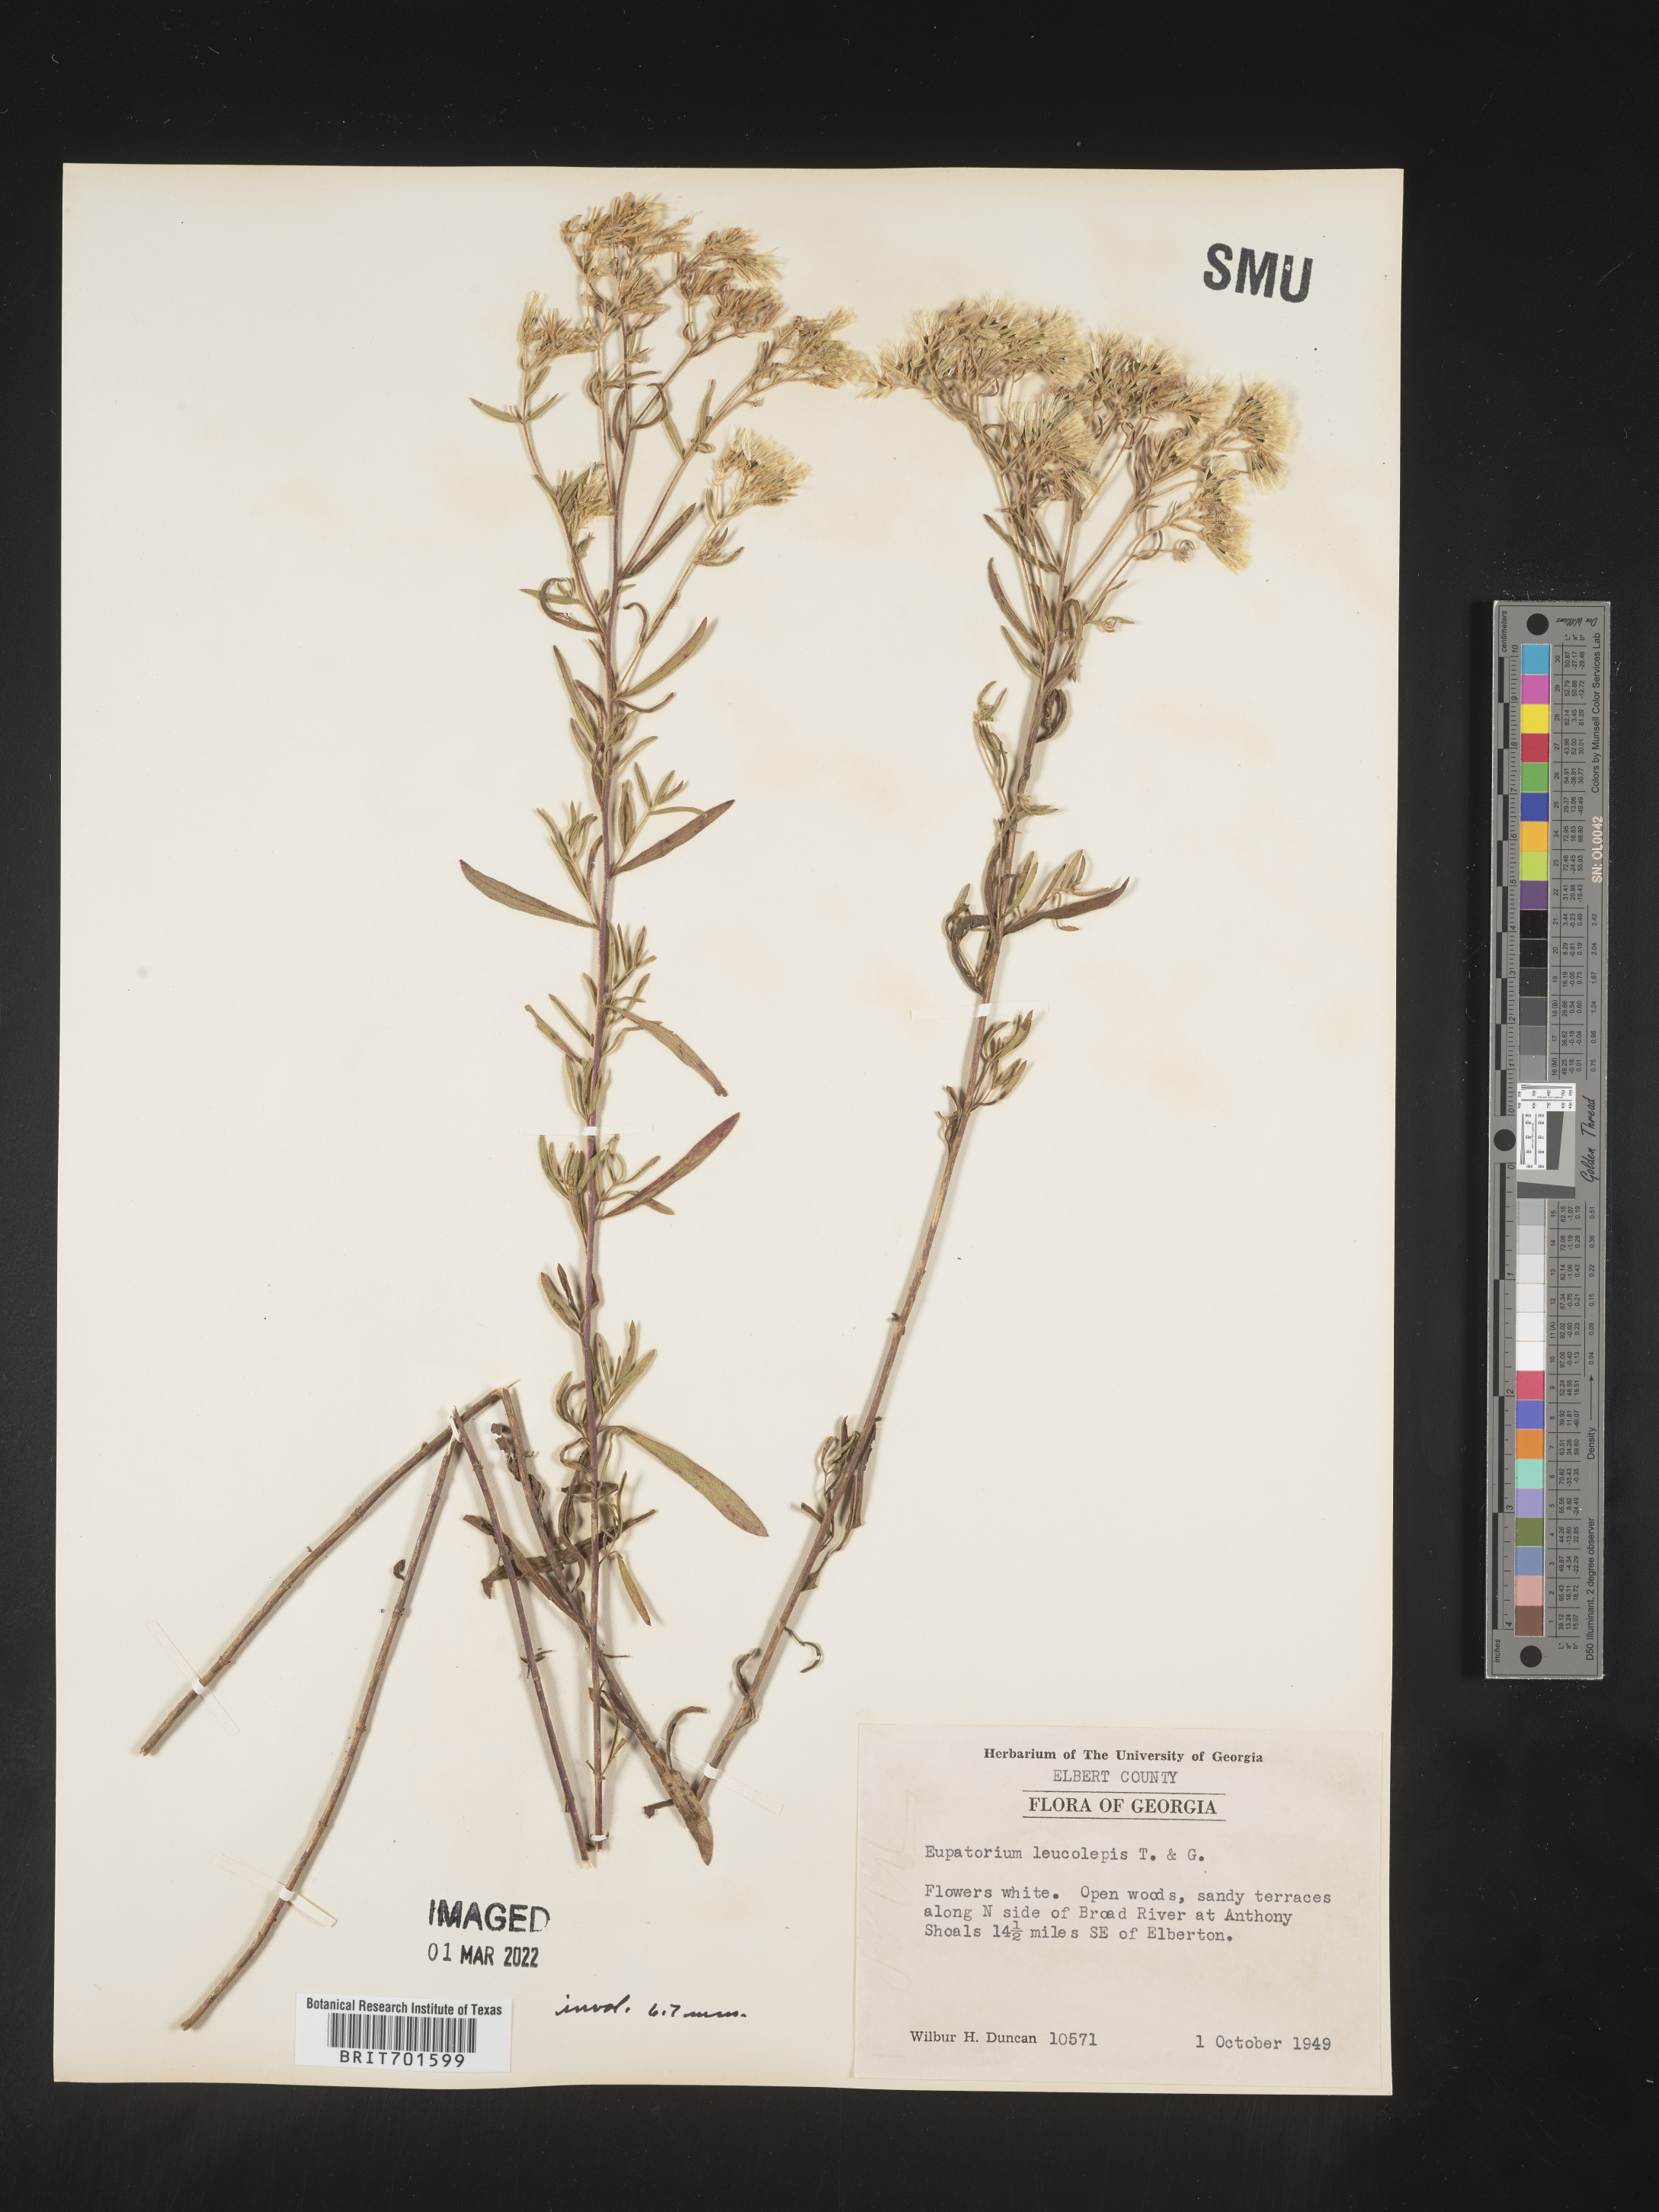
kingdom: Plantae
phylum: Tracheophyta
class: Magnoliopsida
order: Asterales
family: Asteraceae
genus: Eupatorium
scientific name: Eupatorium leucolepis
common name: Justiceweed
